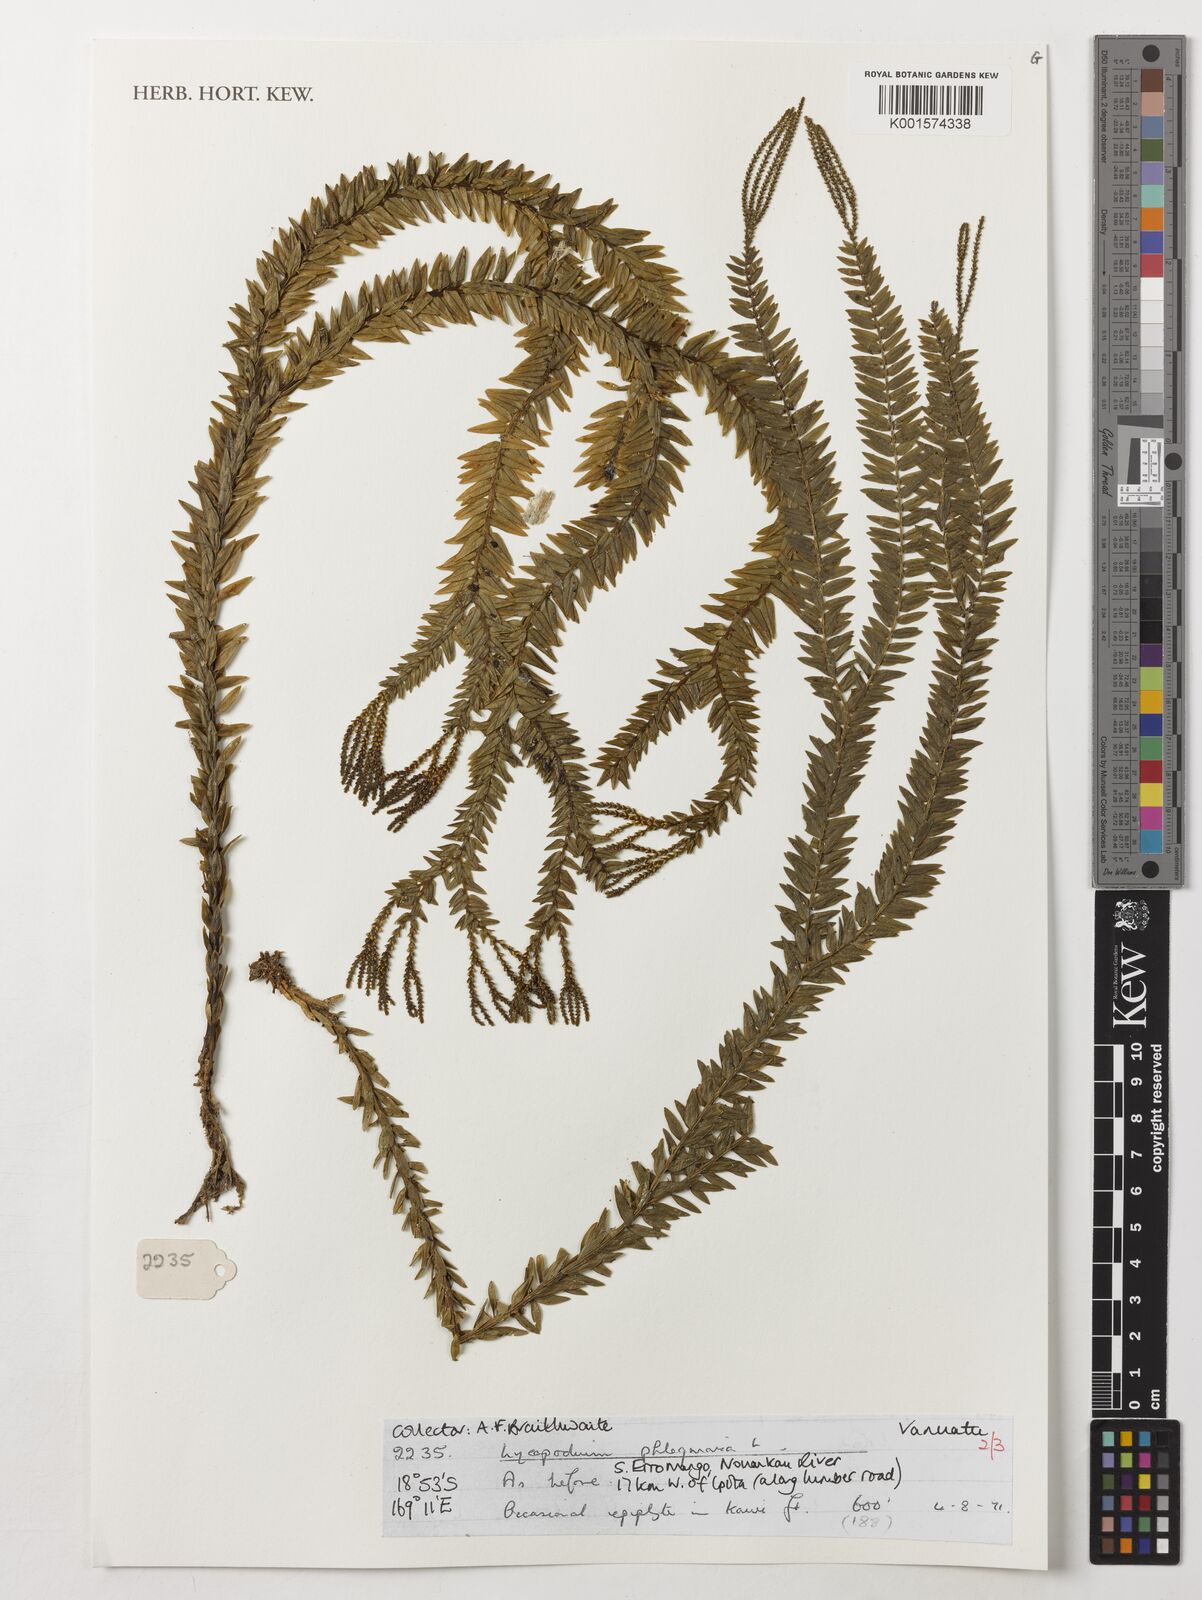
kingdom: Plantae
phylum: Tracheophyta
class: Lycopodiopsida
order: Lycopodiales
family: Lycopodiaceae
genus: Phlegmariurus
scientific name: Phlegmariurus phlegmaria
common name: Coarse tassel-fern
